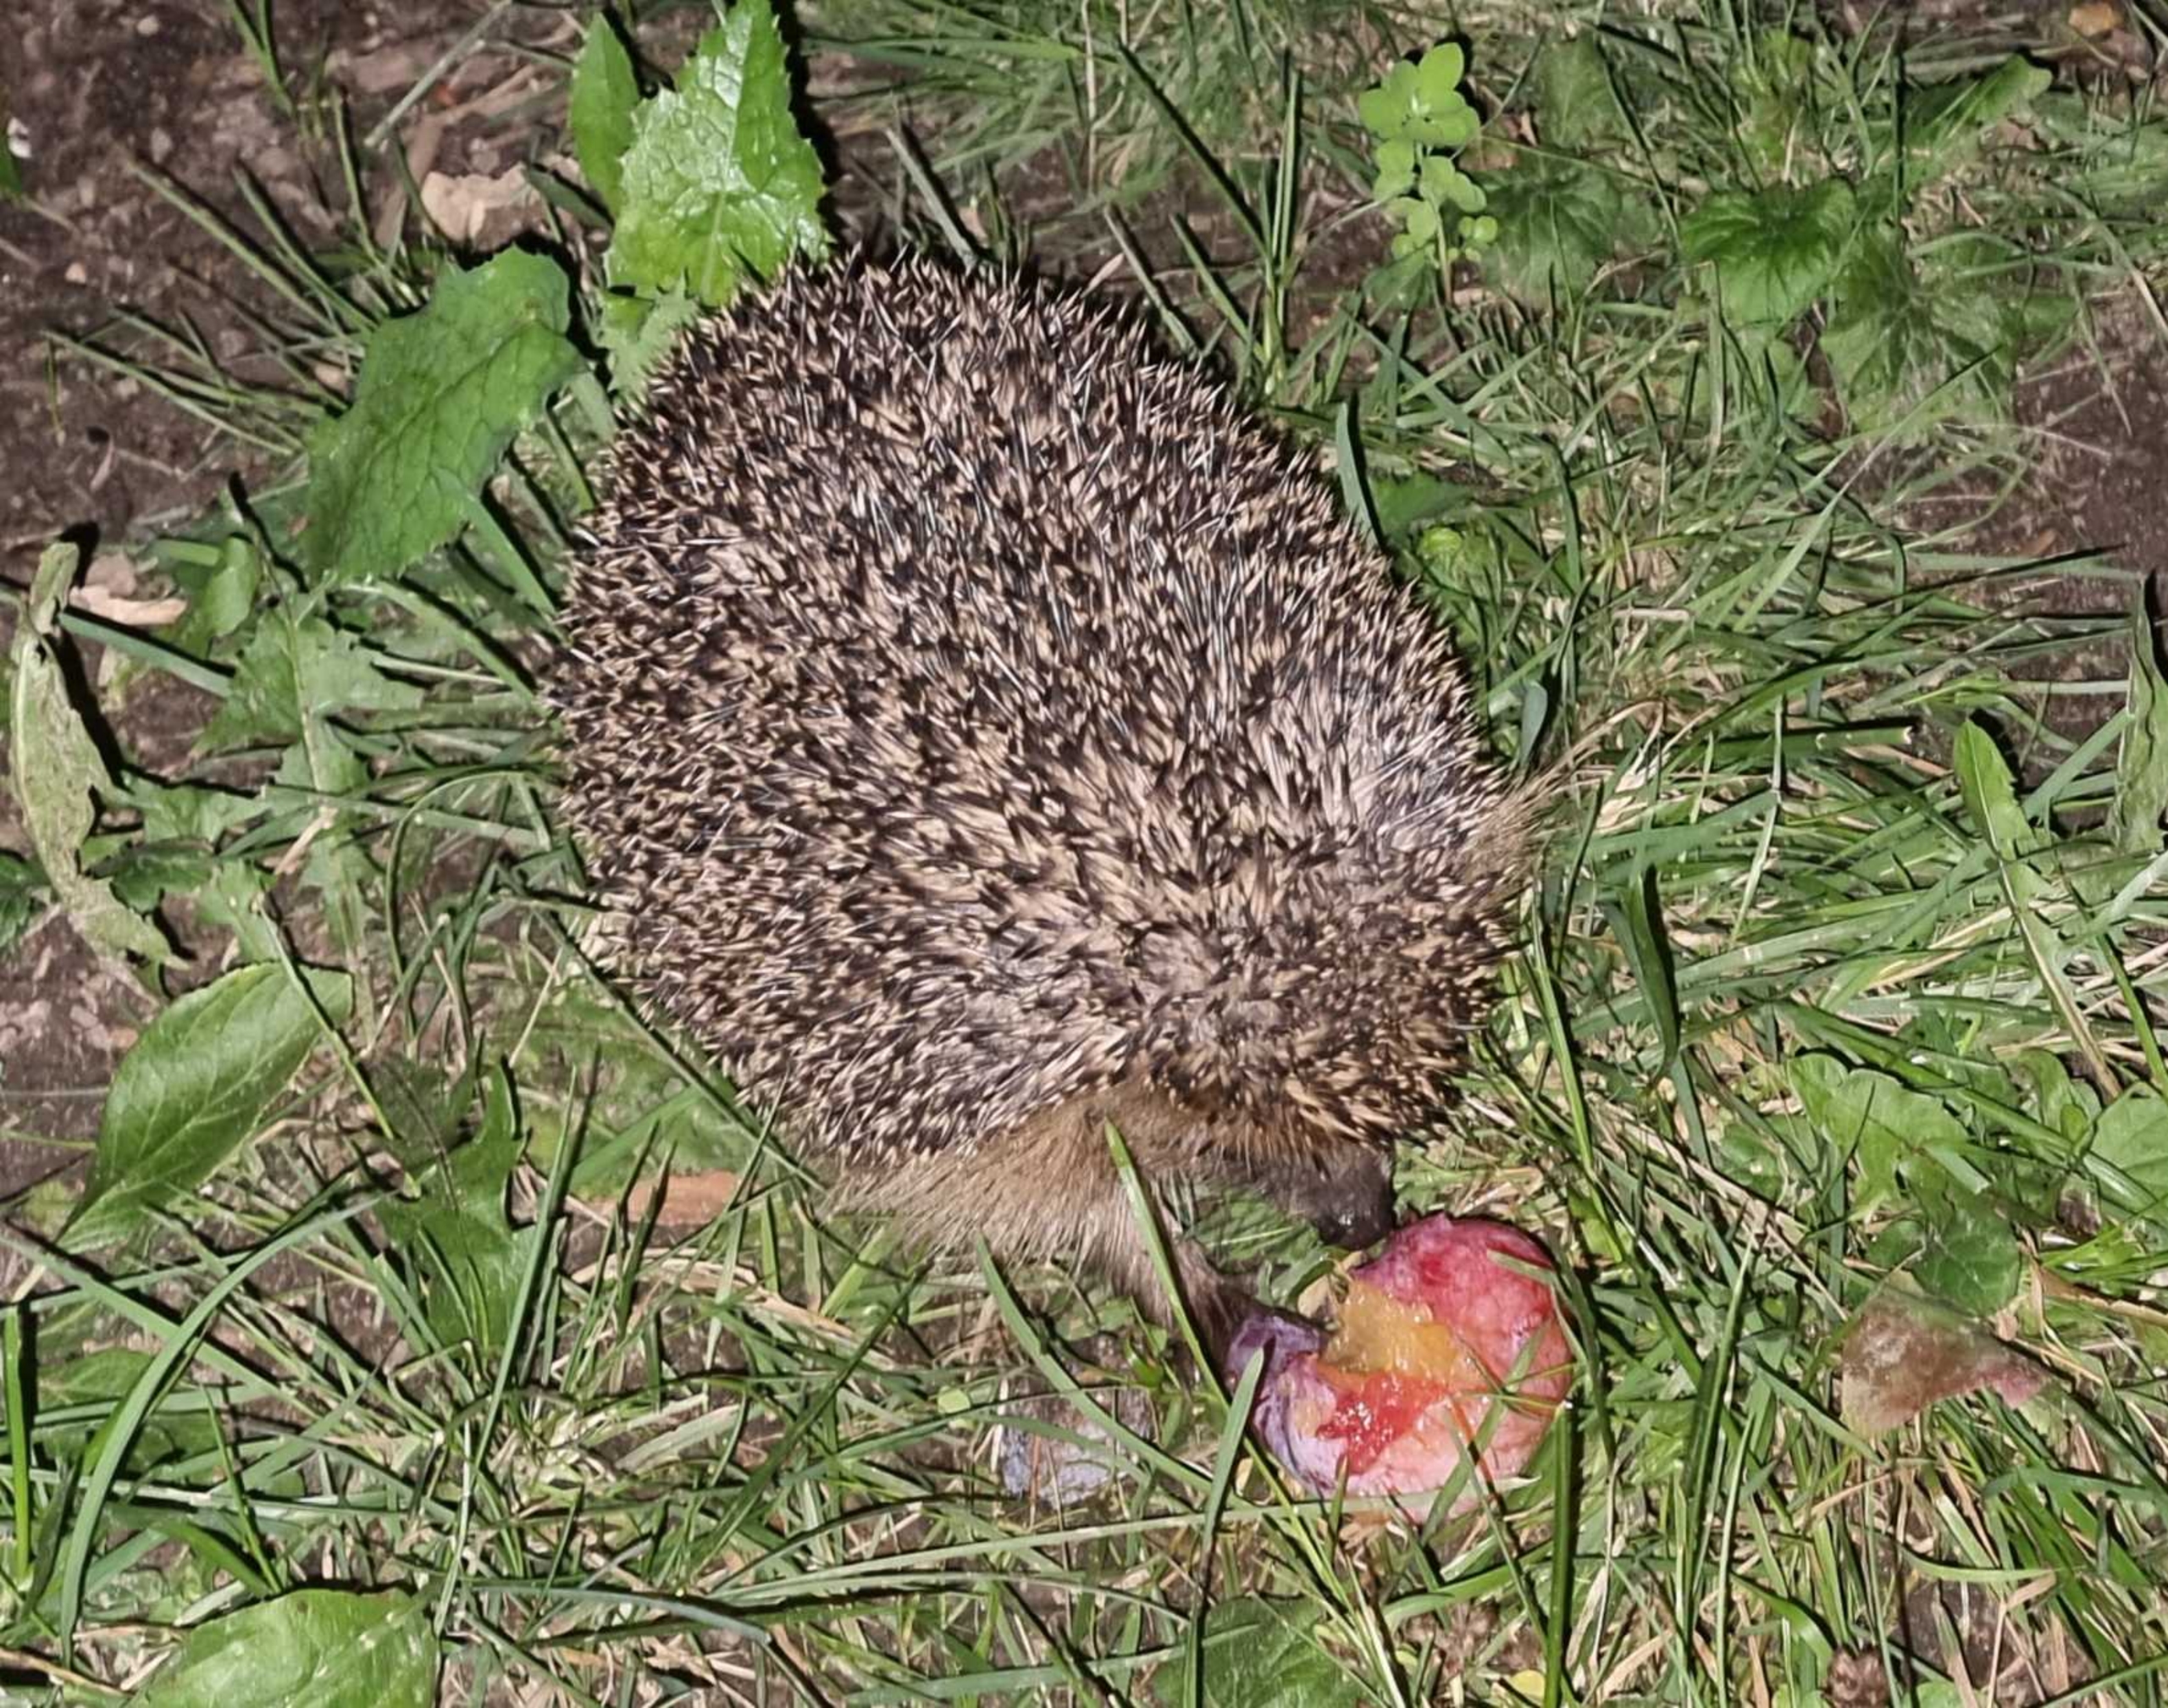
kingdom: Animalia
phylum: Chordata
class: Mammalia
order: Erinaceomorpha
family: Erinaceidae
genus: Erinaceus
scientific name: Erinaceus europaeus
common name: Pindsvin
